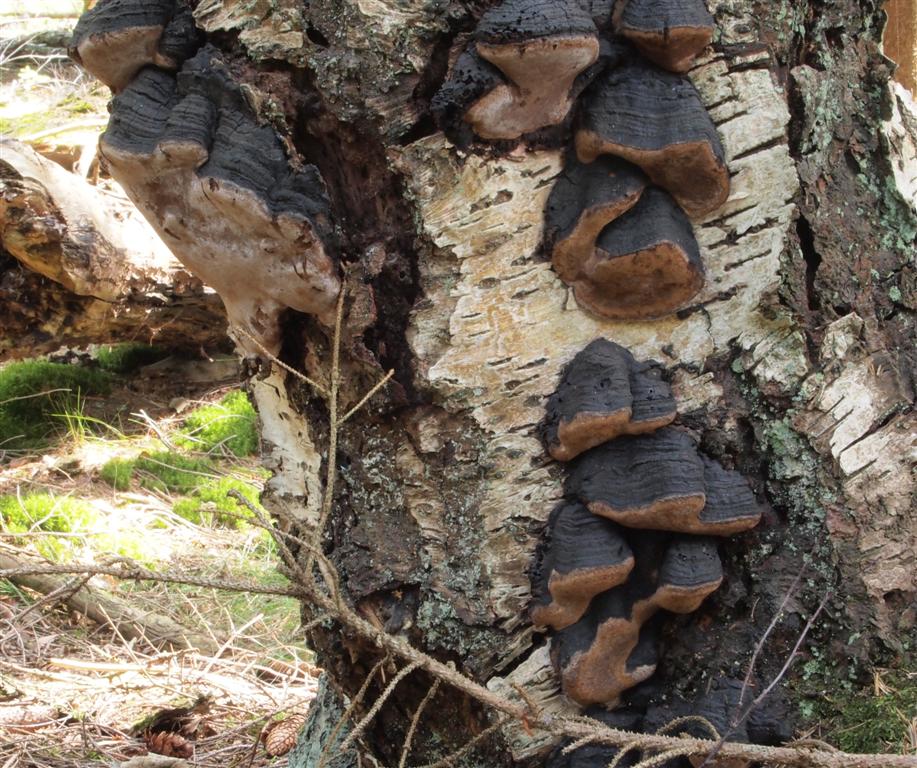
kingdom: Fungi
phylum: Basidiomycota
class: Agaricomycetes
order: Hymenochaetales
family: Hymenochaetaceae
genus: Phellinus
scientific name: Phellinus lundellii
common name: birke-ildporesvamp
